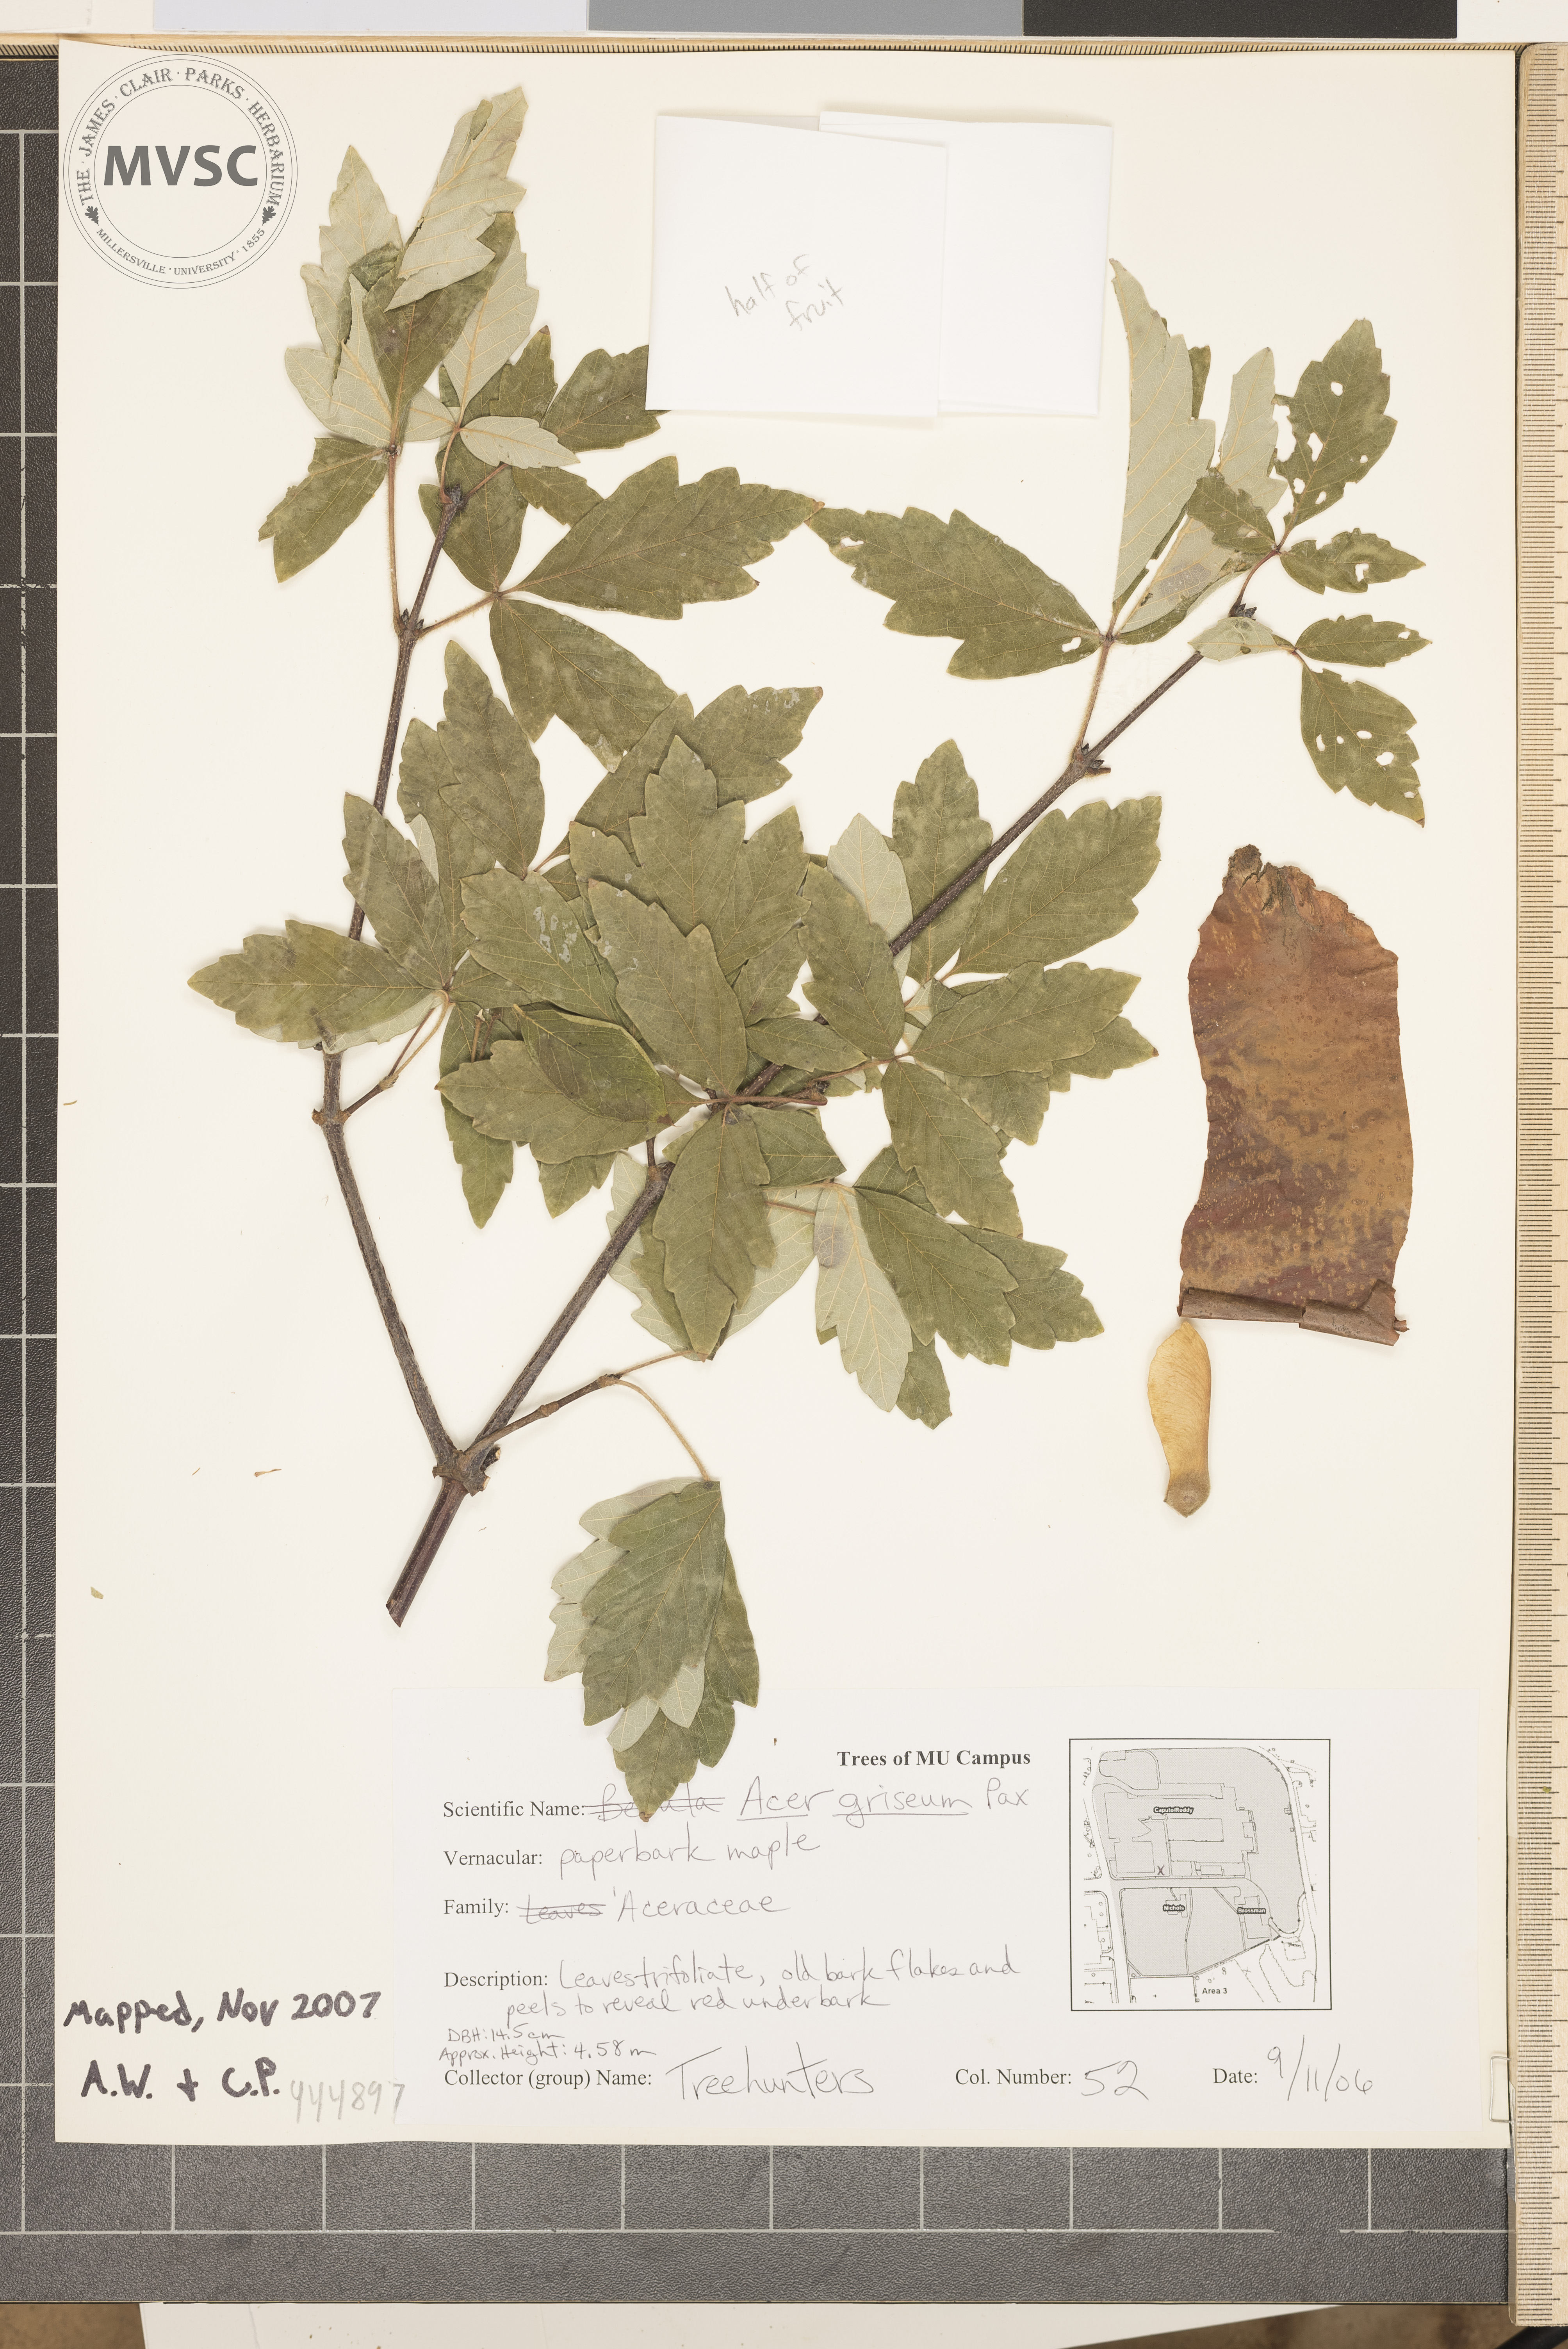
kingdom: Plantae
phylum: Tracheophyta
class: Magnoliopsida
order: Sapindales
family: Sapindaceae
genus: Acer
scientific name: Acer griseum
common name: Paperbark Maple
